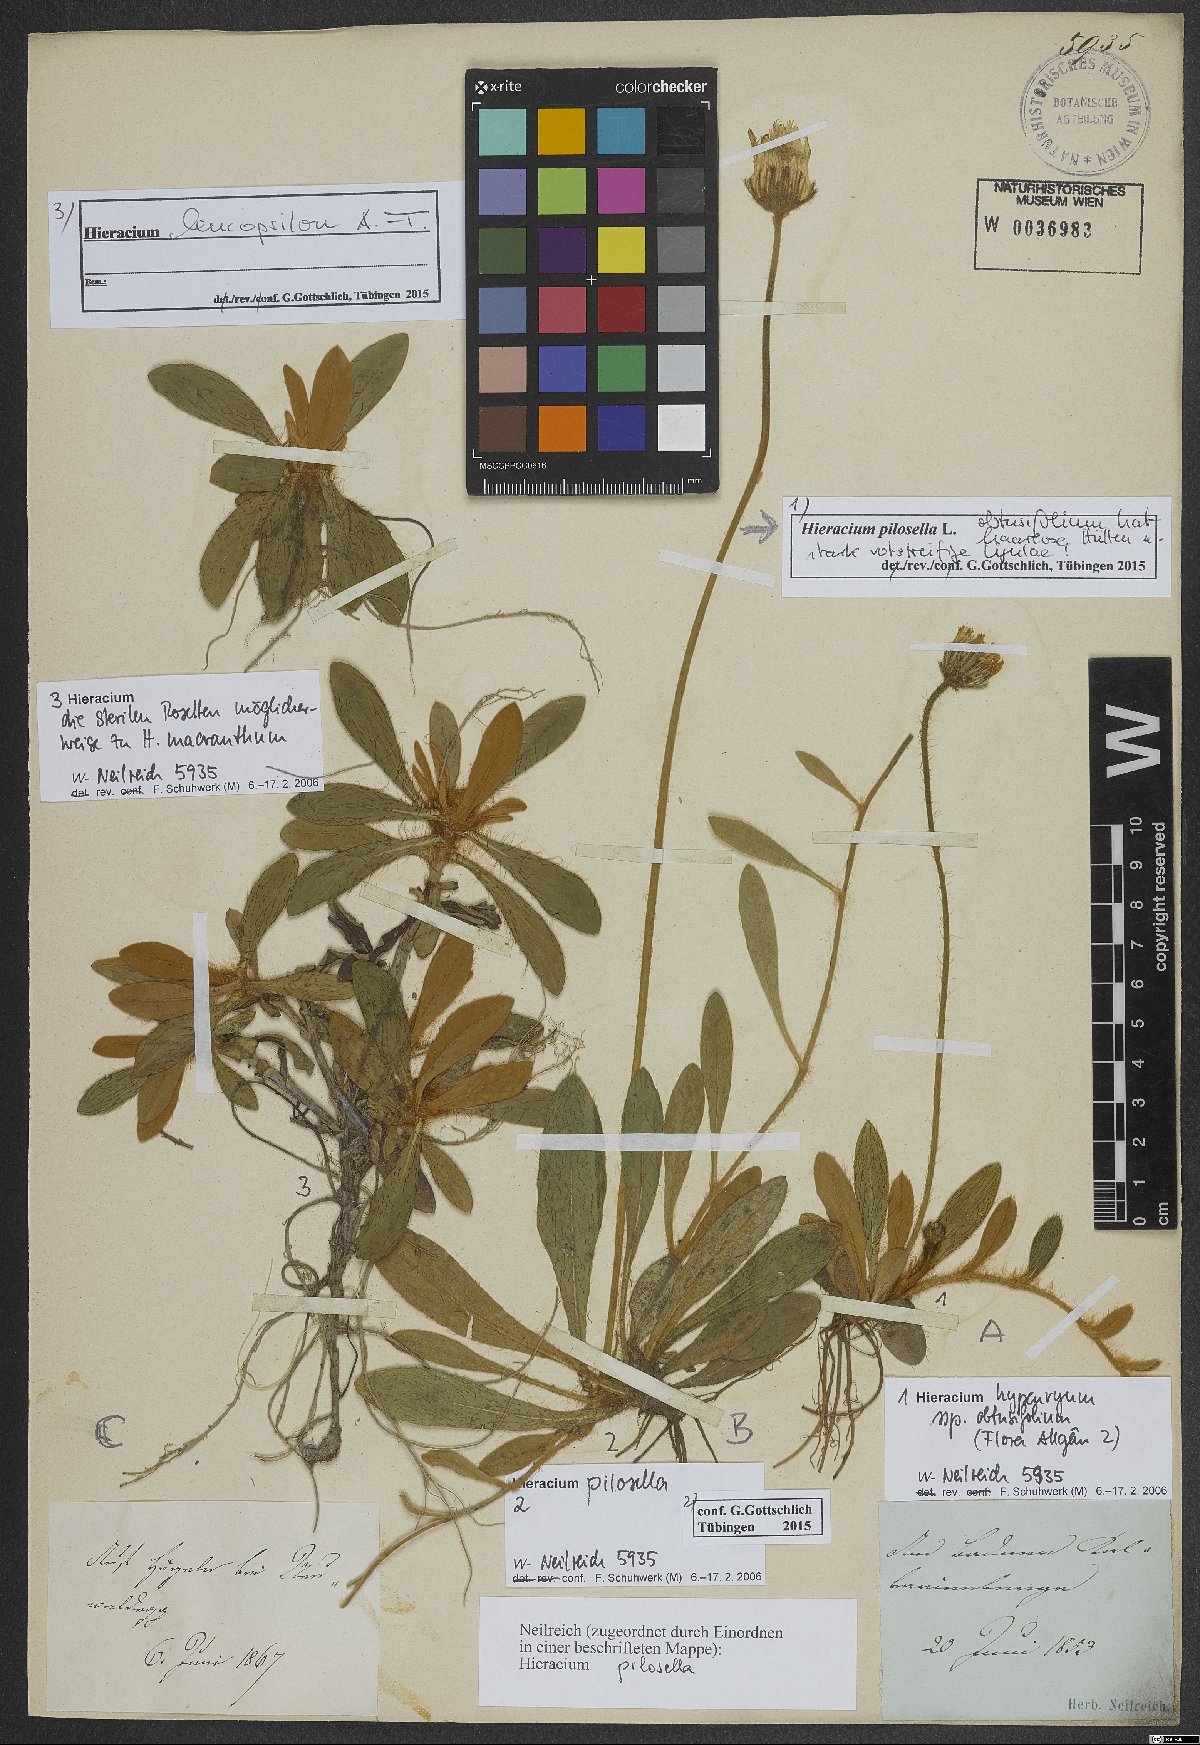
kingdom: Plantae
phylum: Tracheophyta
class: Magnoliopsida
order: Asterales
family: Asteraceae
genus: Pilosella
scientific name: Pilosella officinarum
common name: Mouse-ear hawkweed
